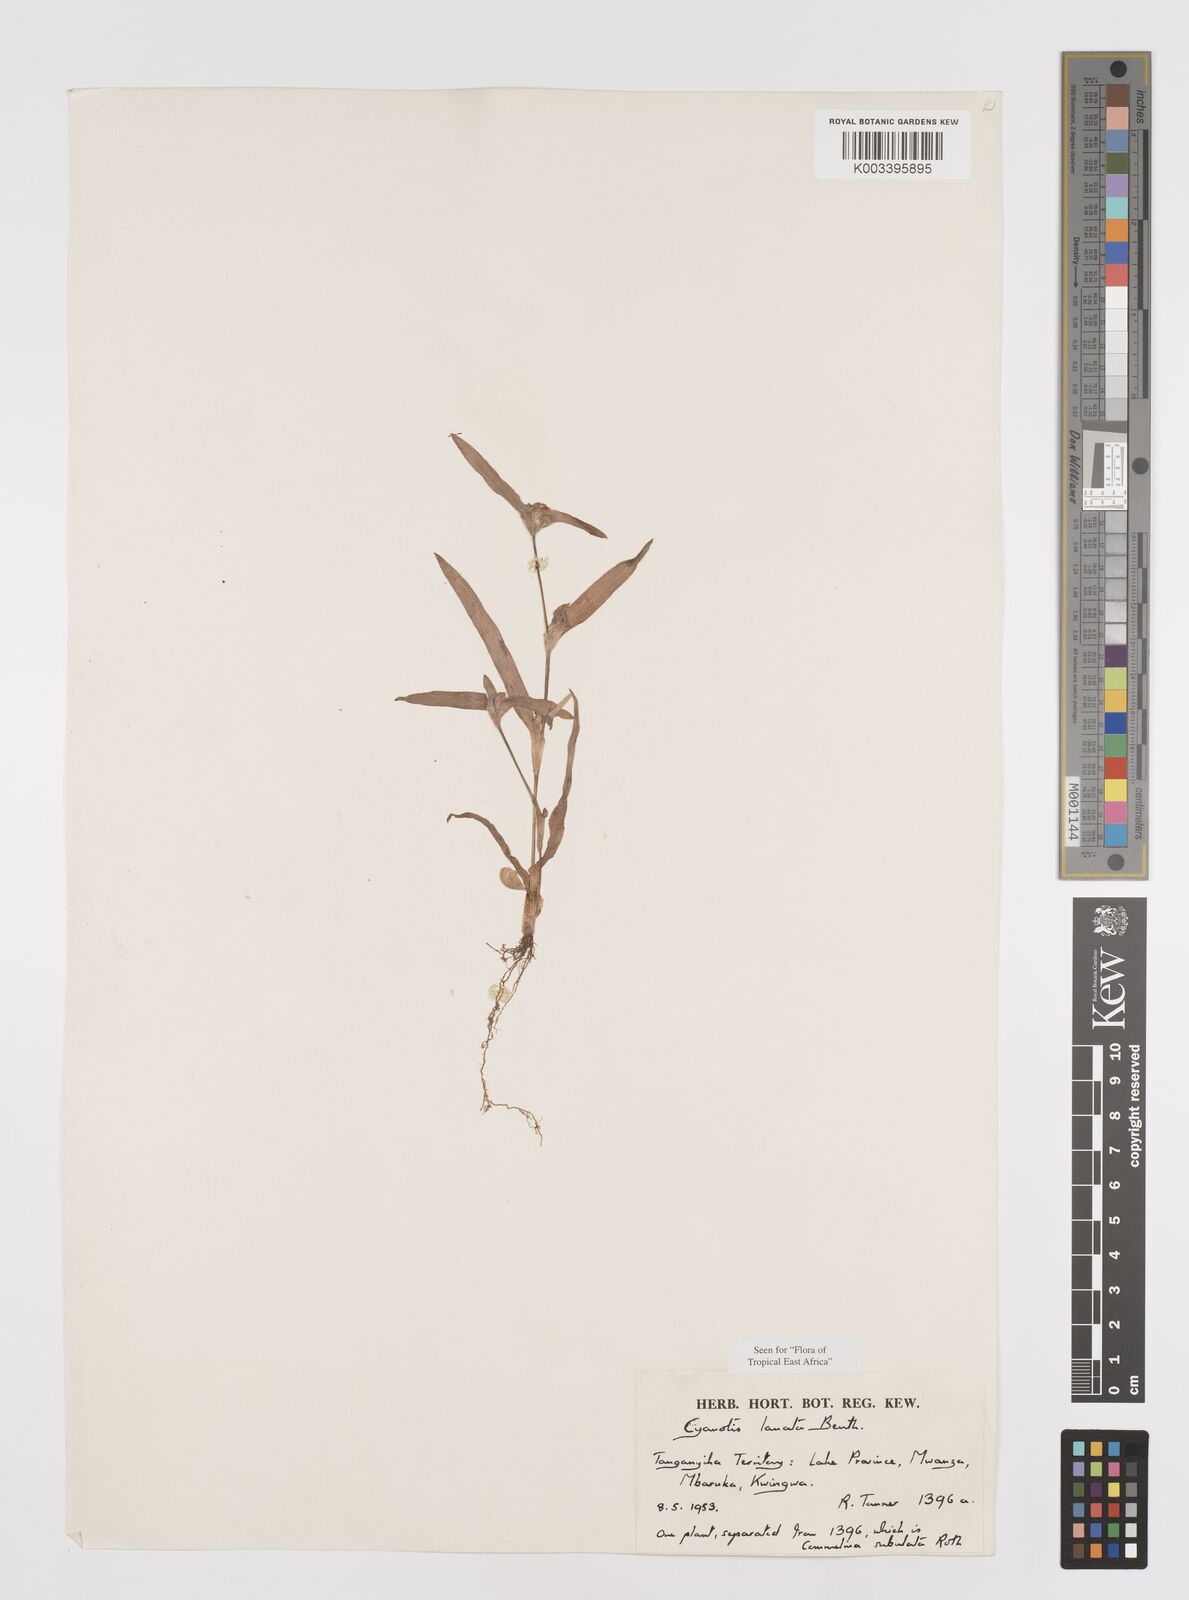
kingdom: Plantae
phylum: Tracheophyta
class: Liliopsida
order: Commelinales
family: Commelinaceae
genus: Cyanotis
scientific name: Cyanotis lanata
